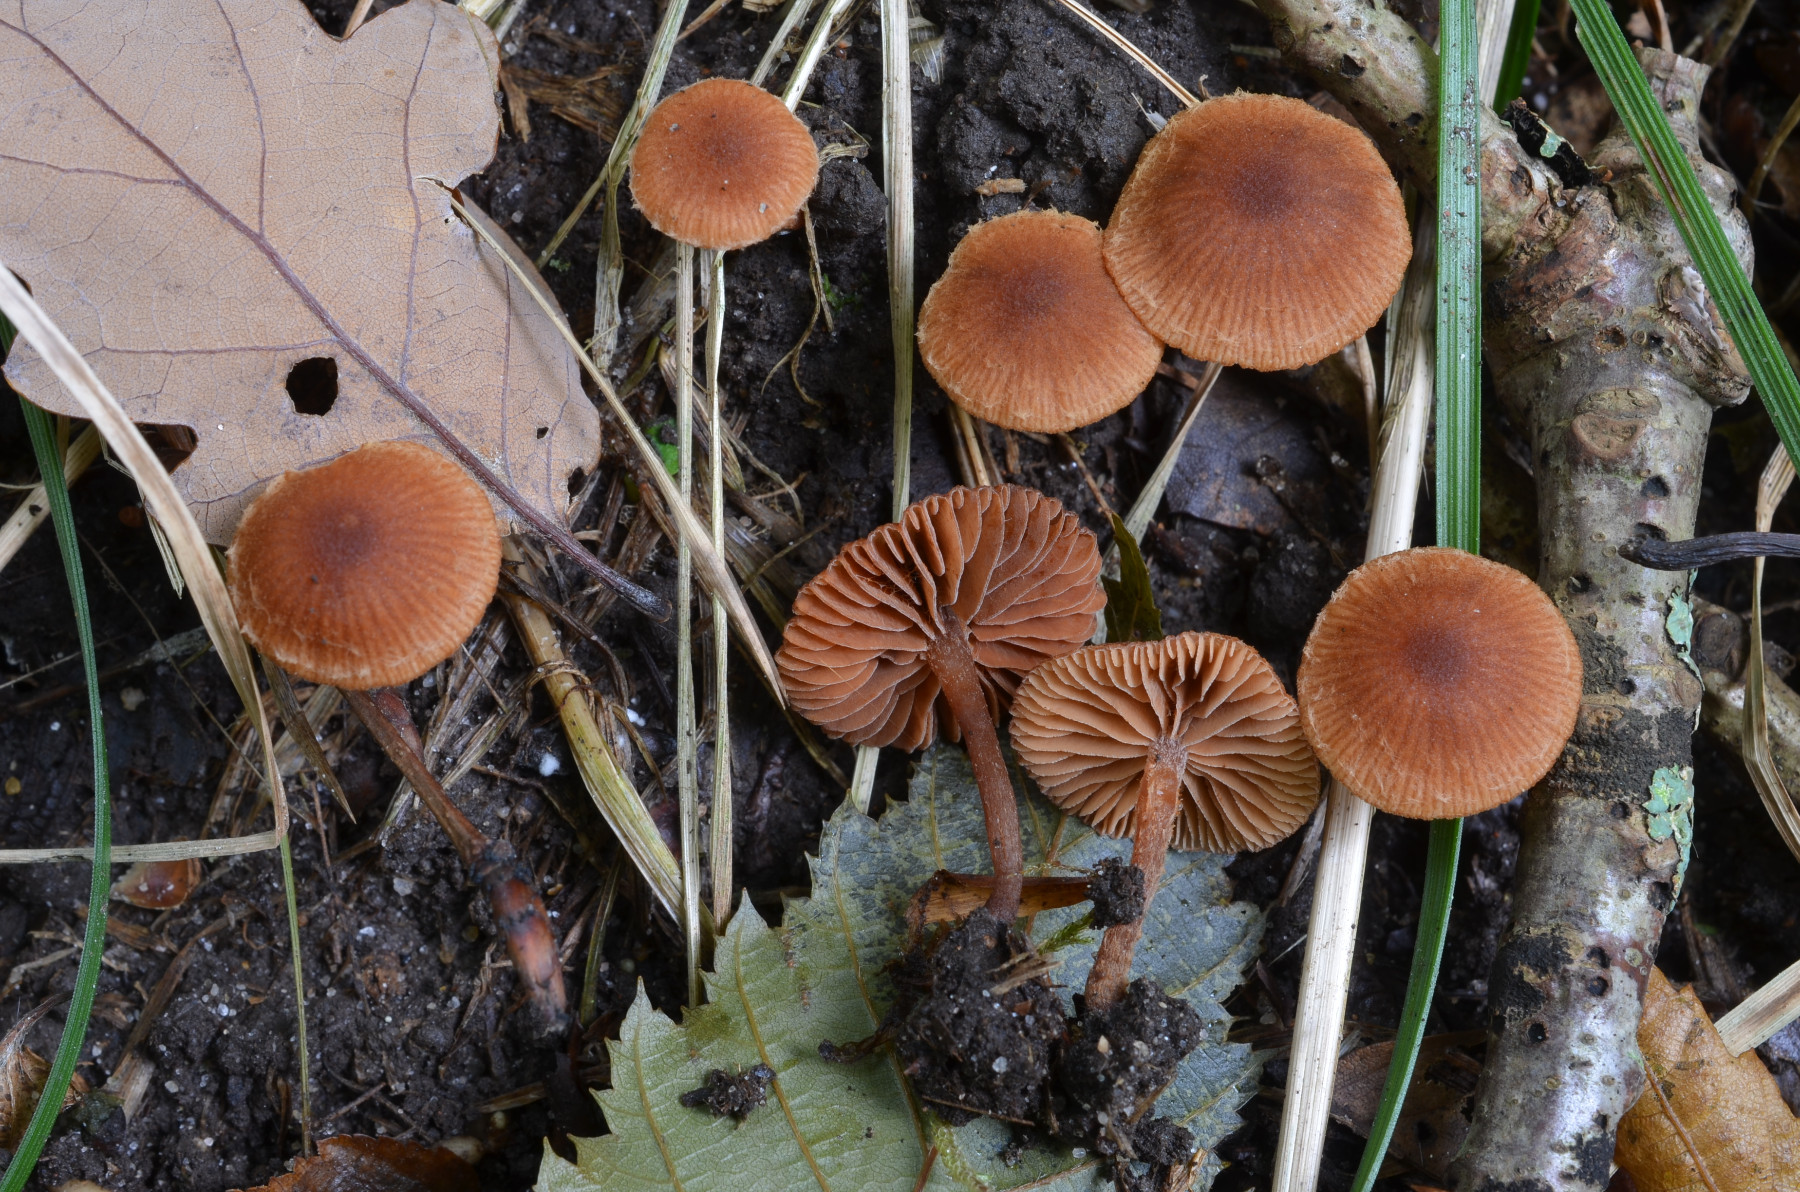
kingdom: Fungi
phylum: Basidiomycota
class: Agaricomycetes
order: Agaricales
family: Tubariaceae
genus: Flammulaster
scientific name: Flammulaster ferrugineus
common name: rustbrun grynskælhat
